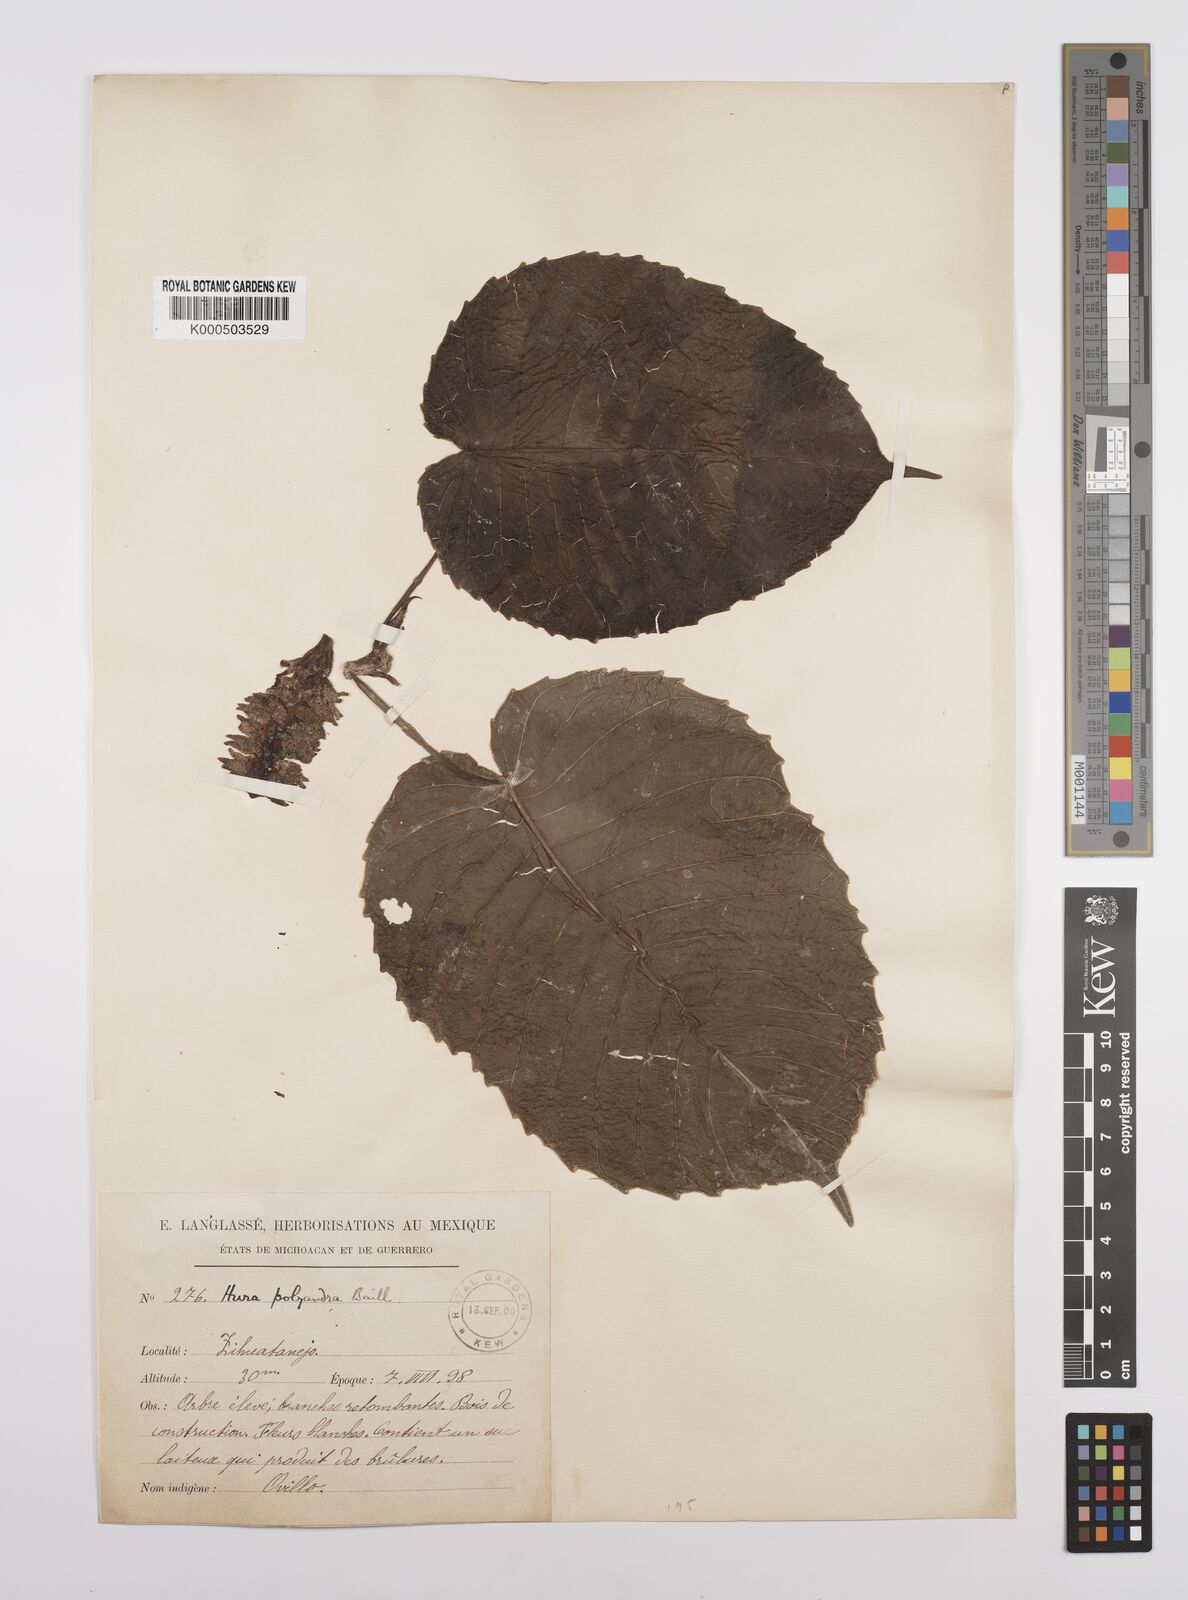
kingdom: Plantae
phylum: Tracheophyta
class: Magnoliopsida
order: Malpighiales
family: Euphorbiaceae
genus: Hura
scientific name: Hura polyandra
